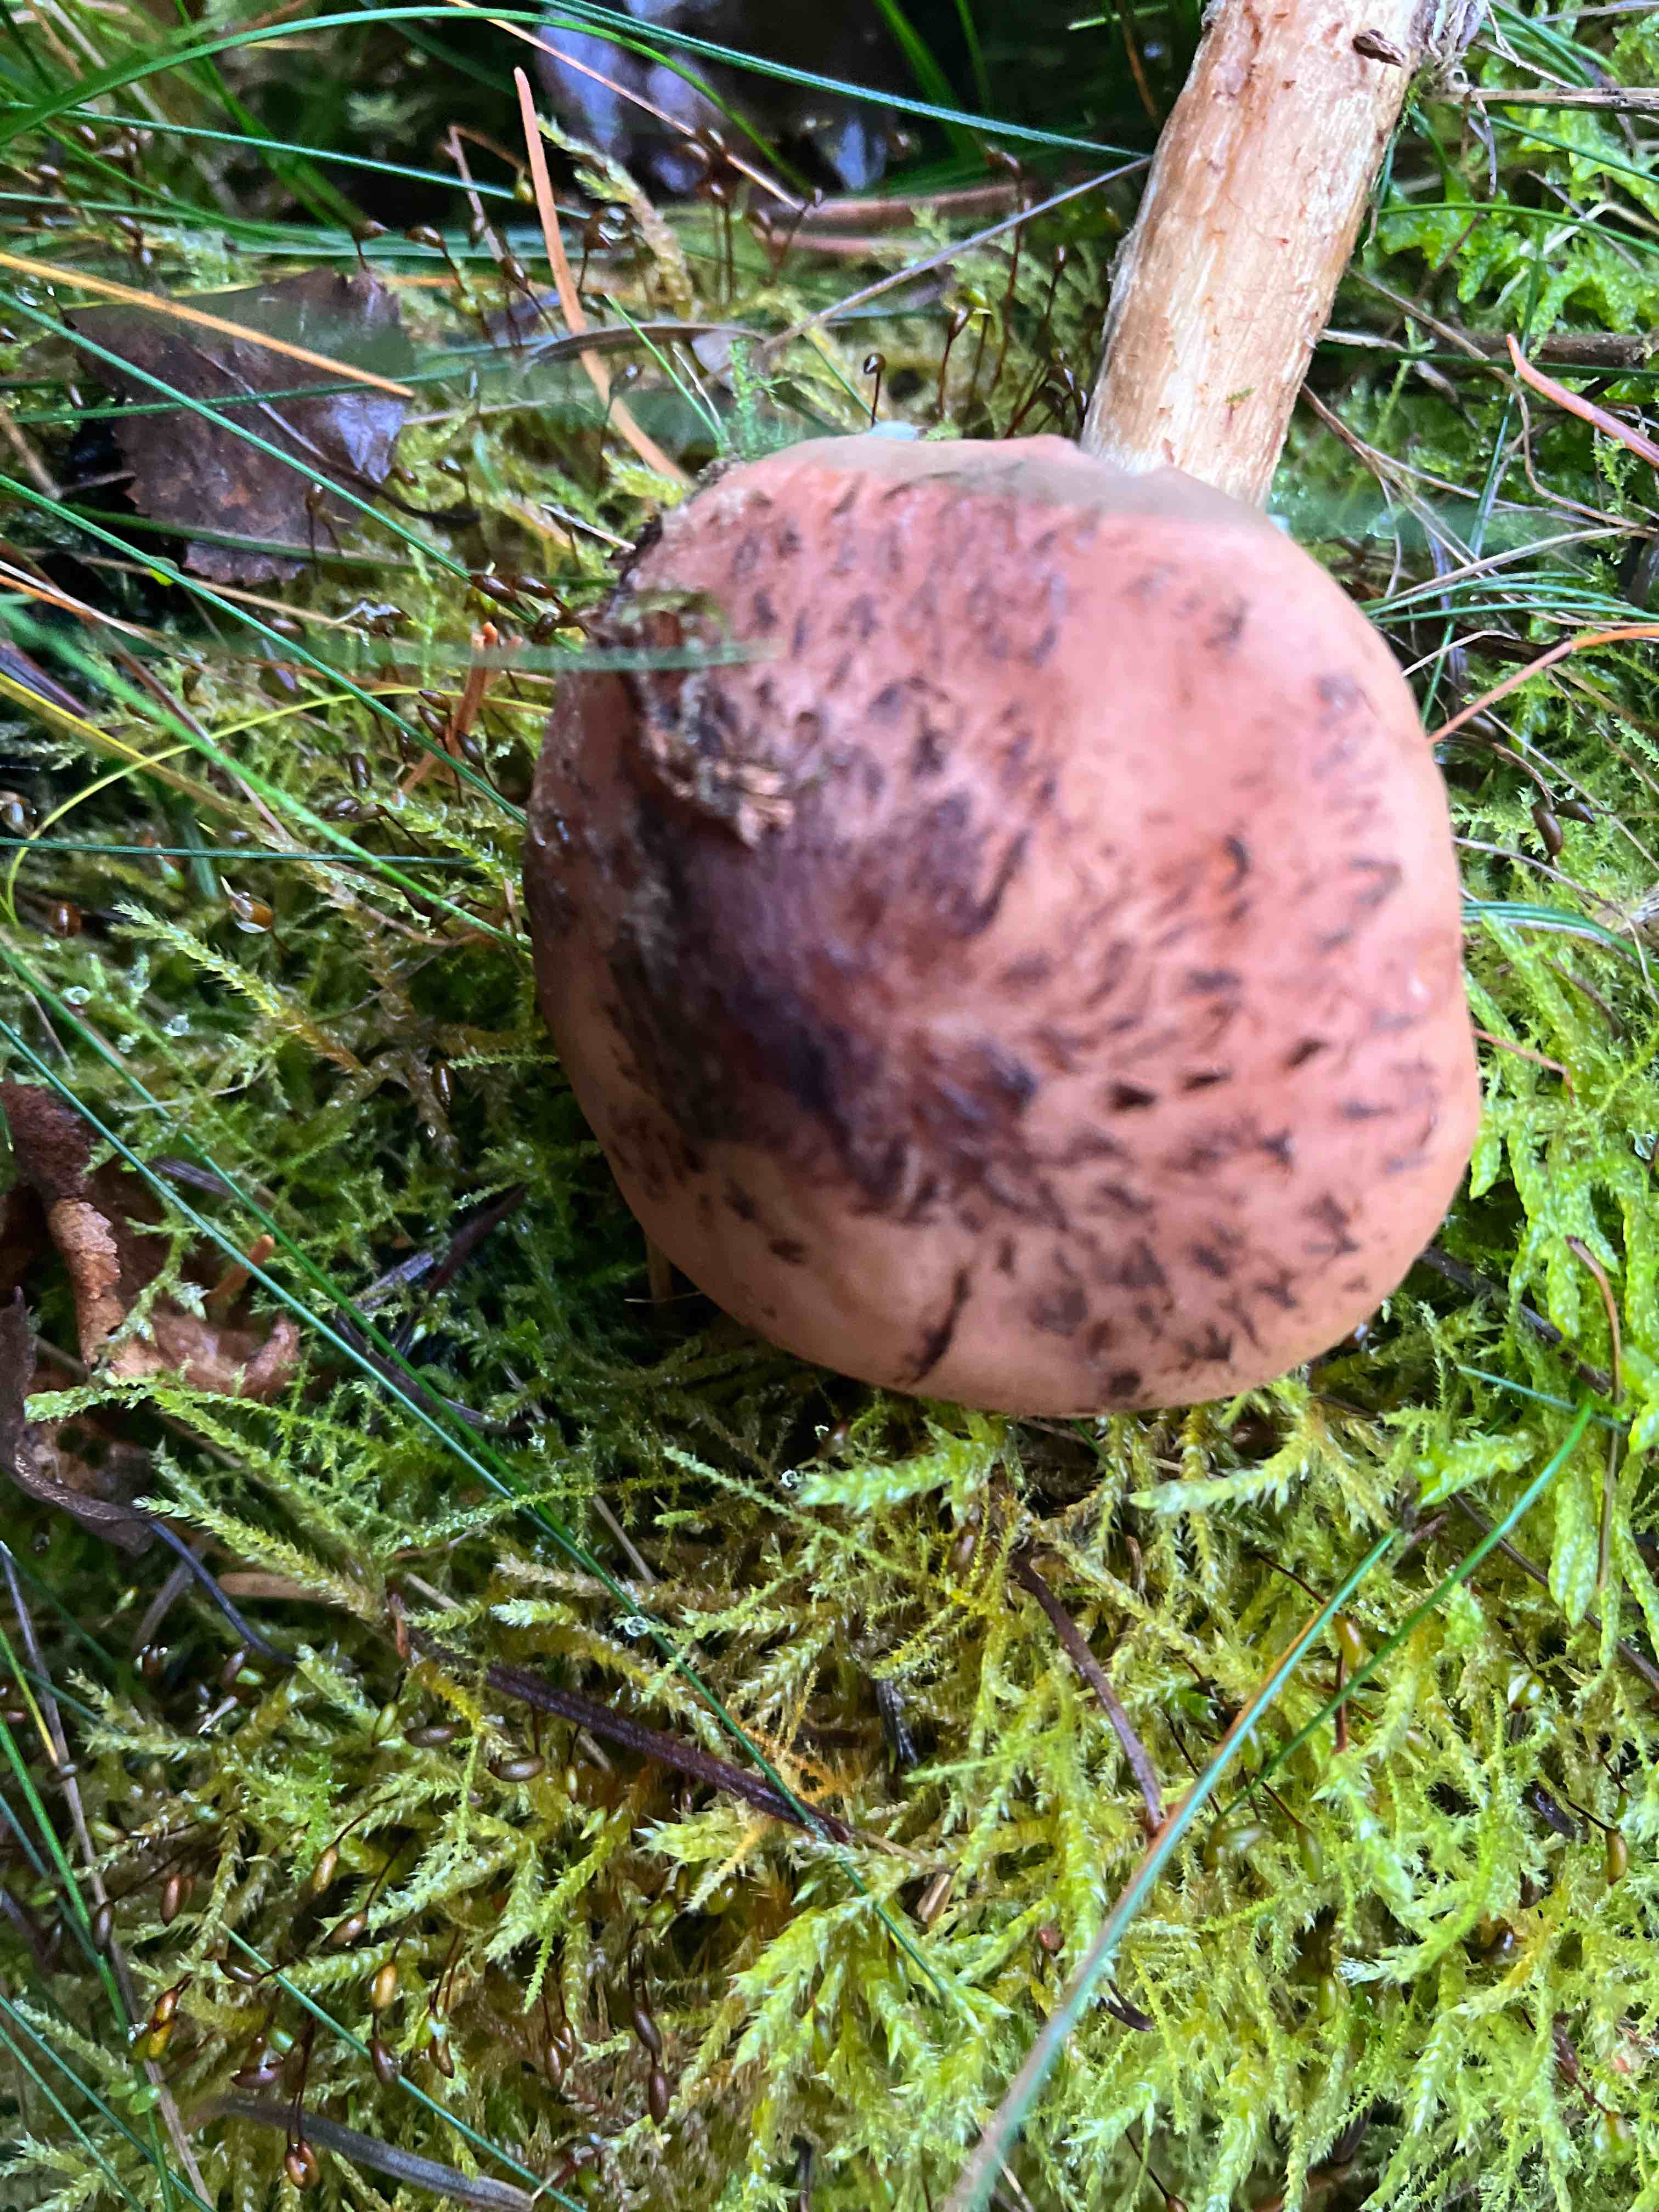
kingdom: Fungi
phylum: Basidiomycota
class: Agaricomycetes
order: Agaricales
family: Physalacriaceae
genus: Armillaria
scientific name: Armillaria ostoyae
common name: mørk honningsvamp
